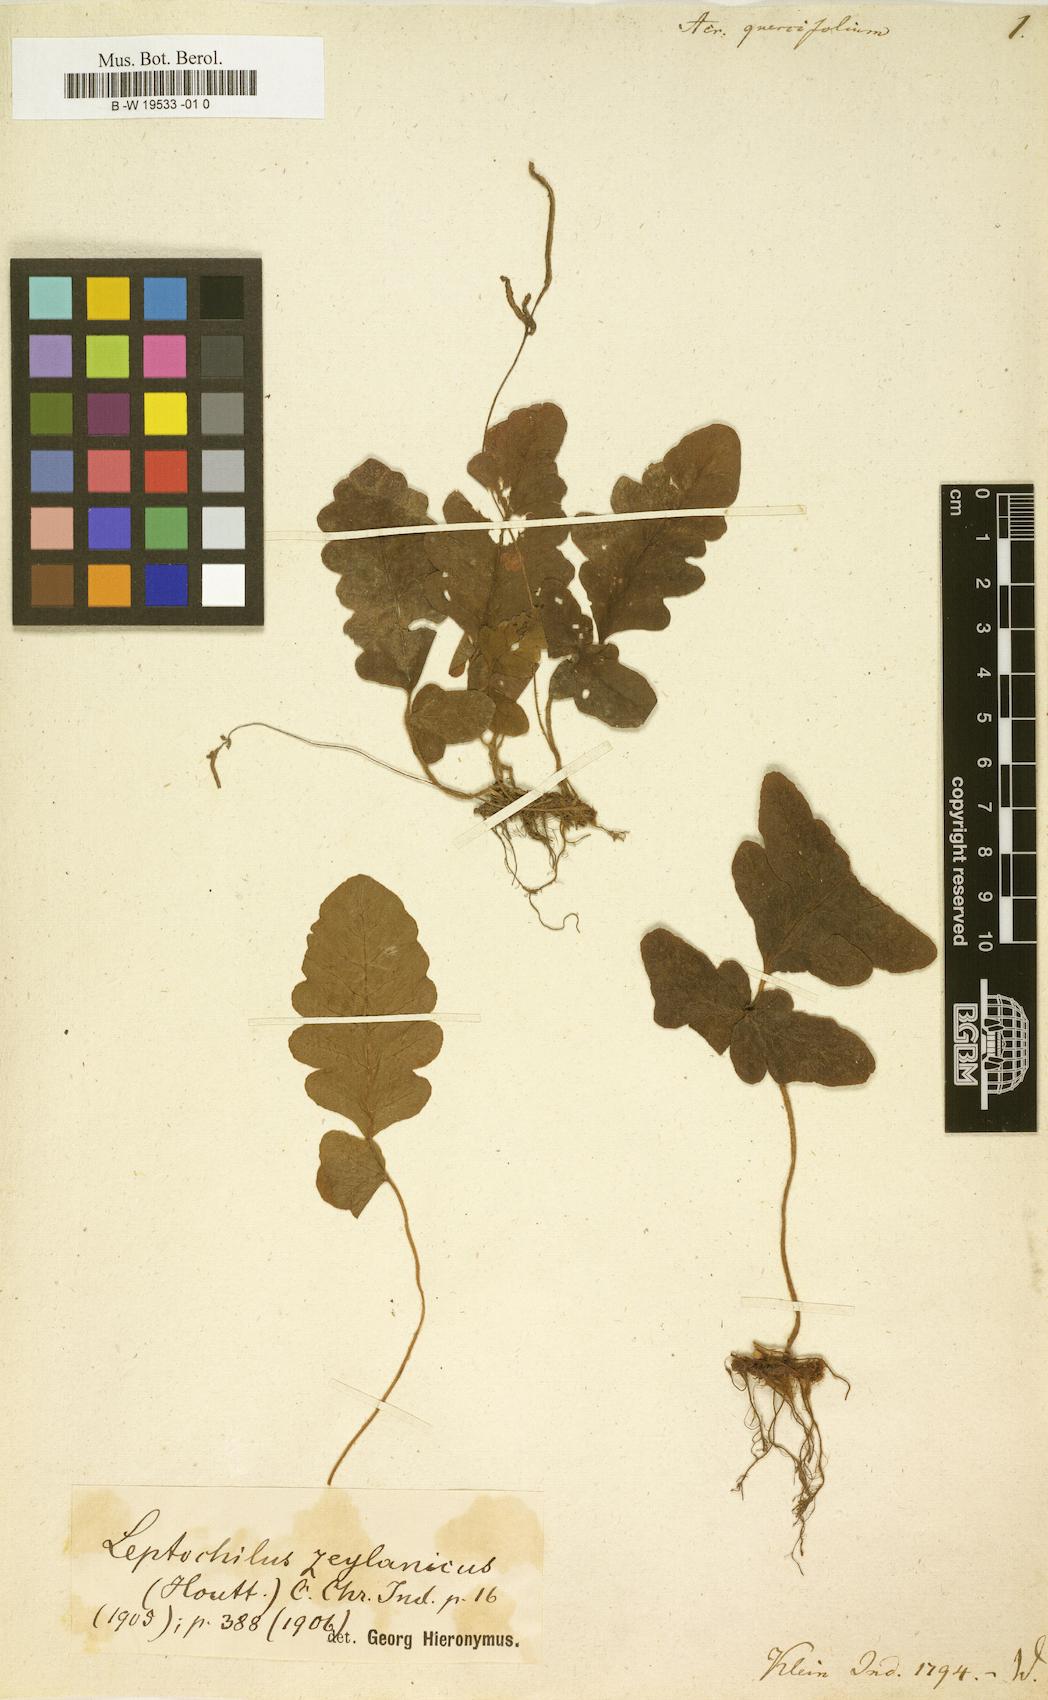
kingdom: Plantae
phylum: Tracheophyta
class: Polypodiopsida
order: Polypodiales
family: Tectariaceae
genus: Tectaria
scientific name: Tectaria zeilanica
